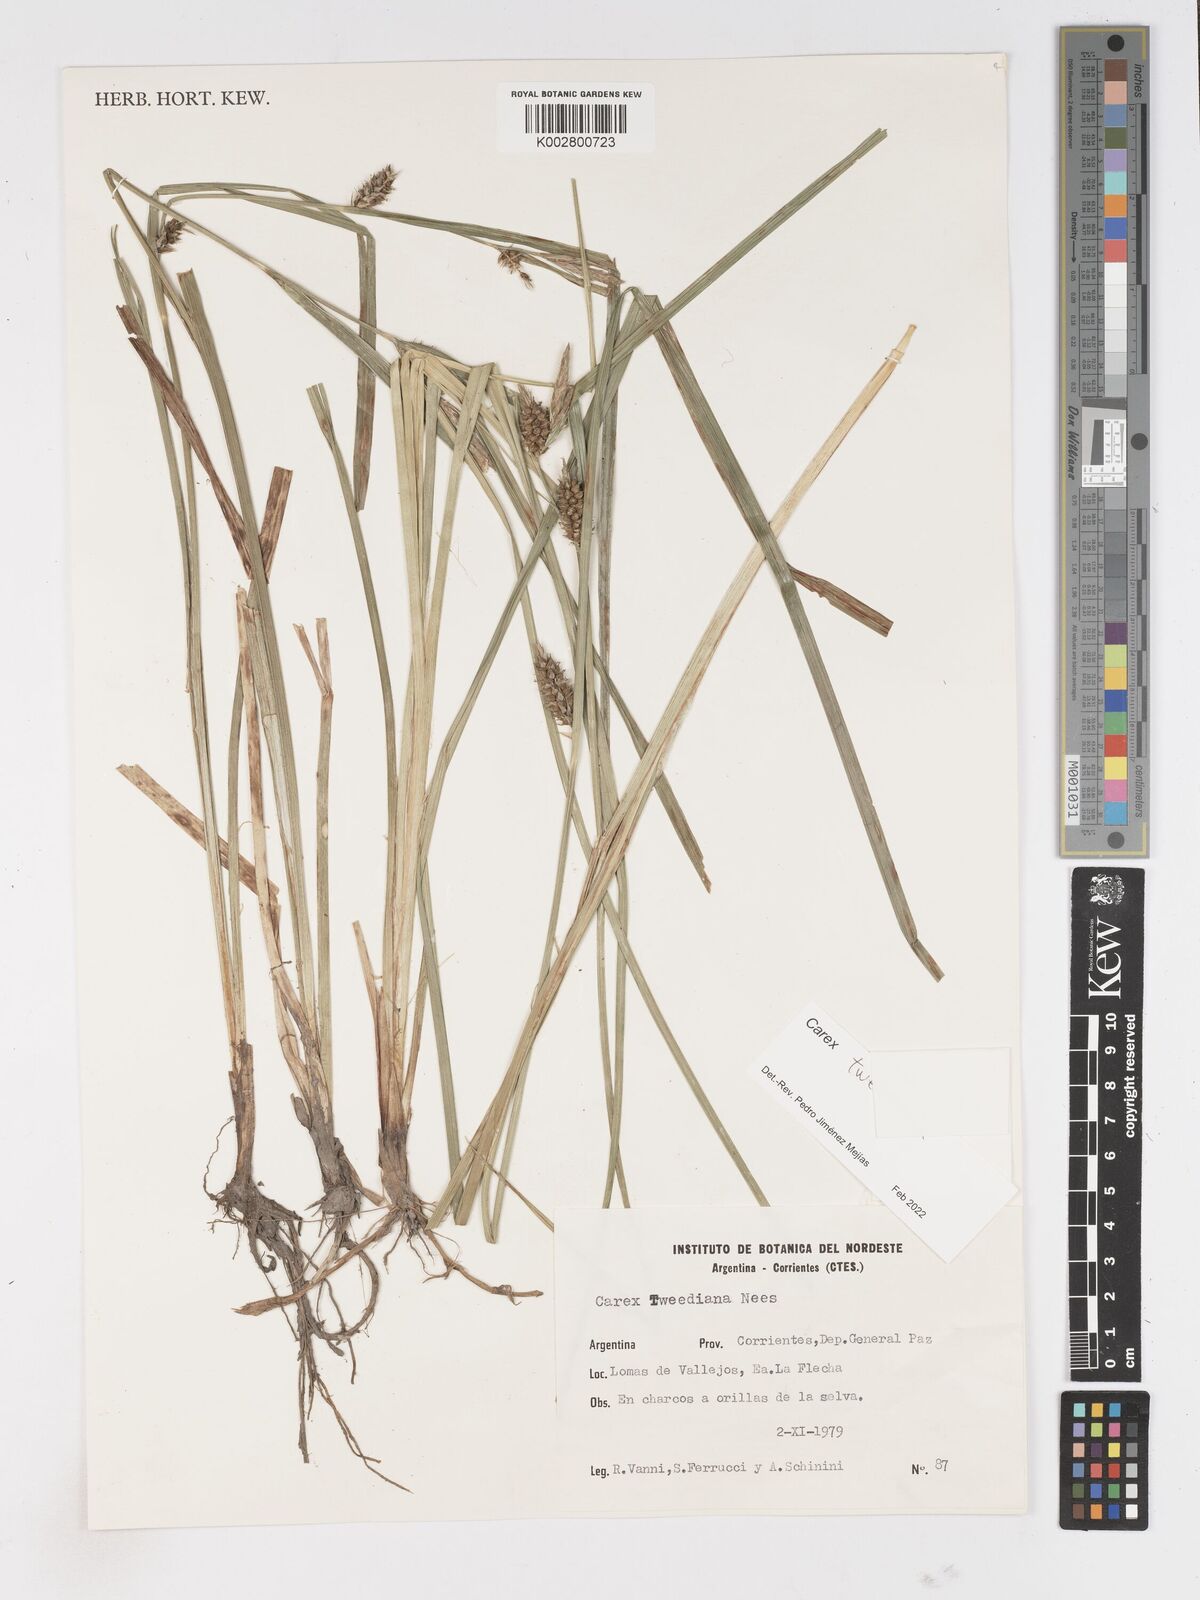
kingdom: Plantae
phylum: Tracheophyta
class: Liliopsida
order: Poales
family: Cyperaceae
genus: Carex
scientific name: Carex tweedieana
